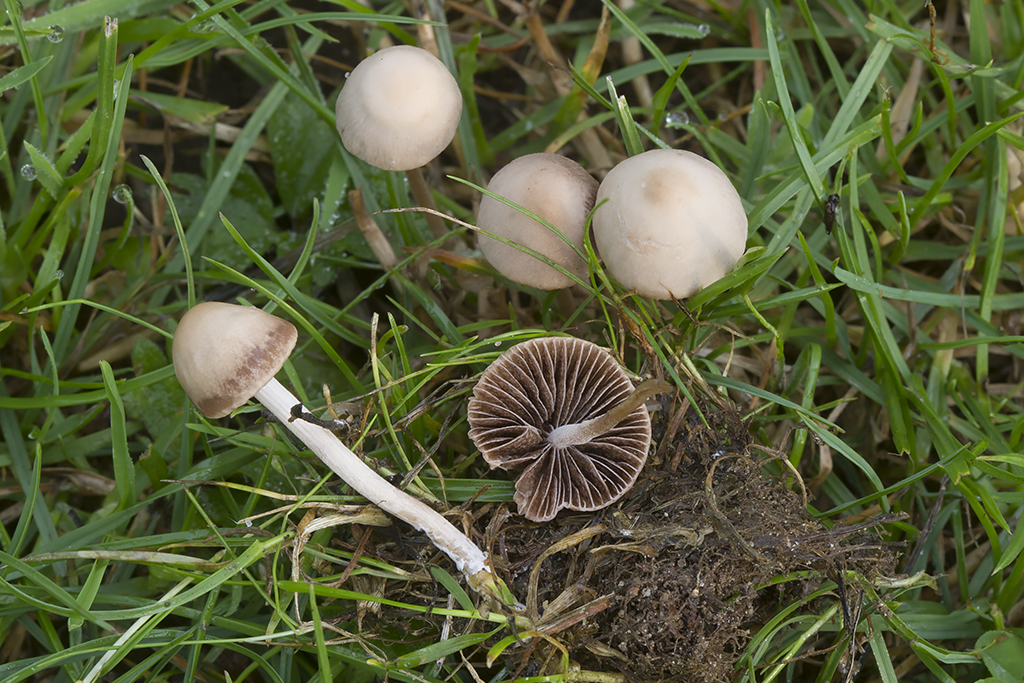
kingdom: Fungi
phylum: Basidiomycota
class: Agaricomycetes
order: Agaricales
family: Bolbitiaceae
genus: Panaeolina
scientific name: Panaeolina foenisecii
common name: høslætsvamp
